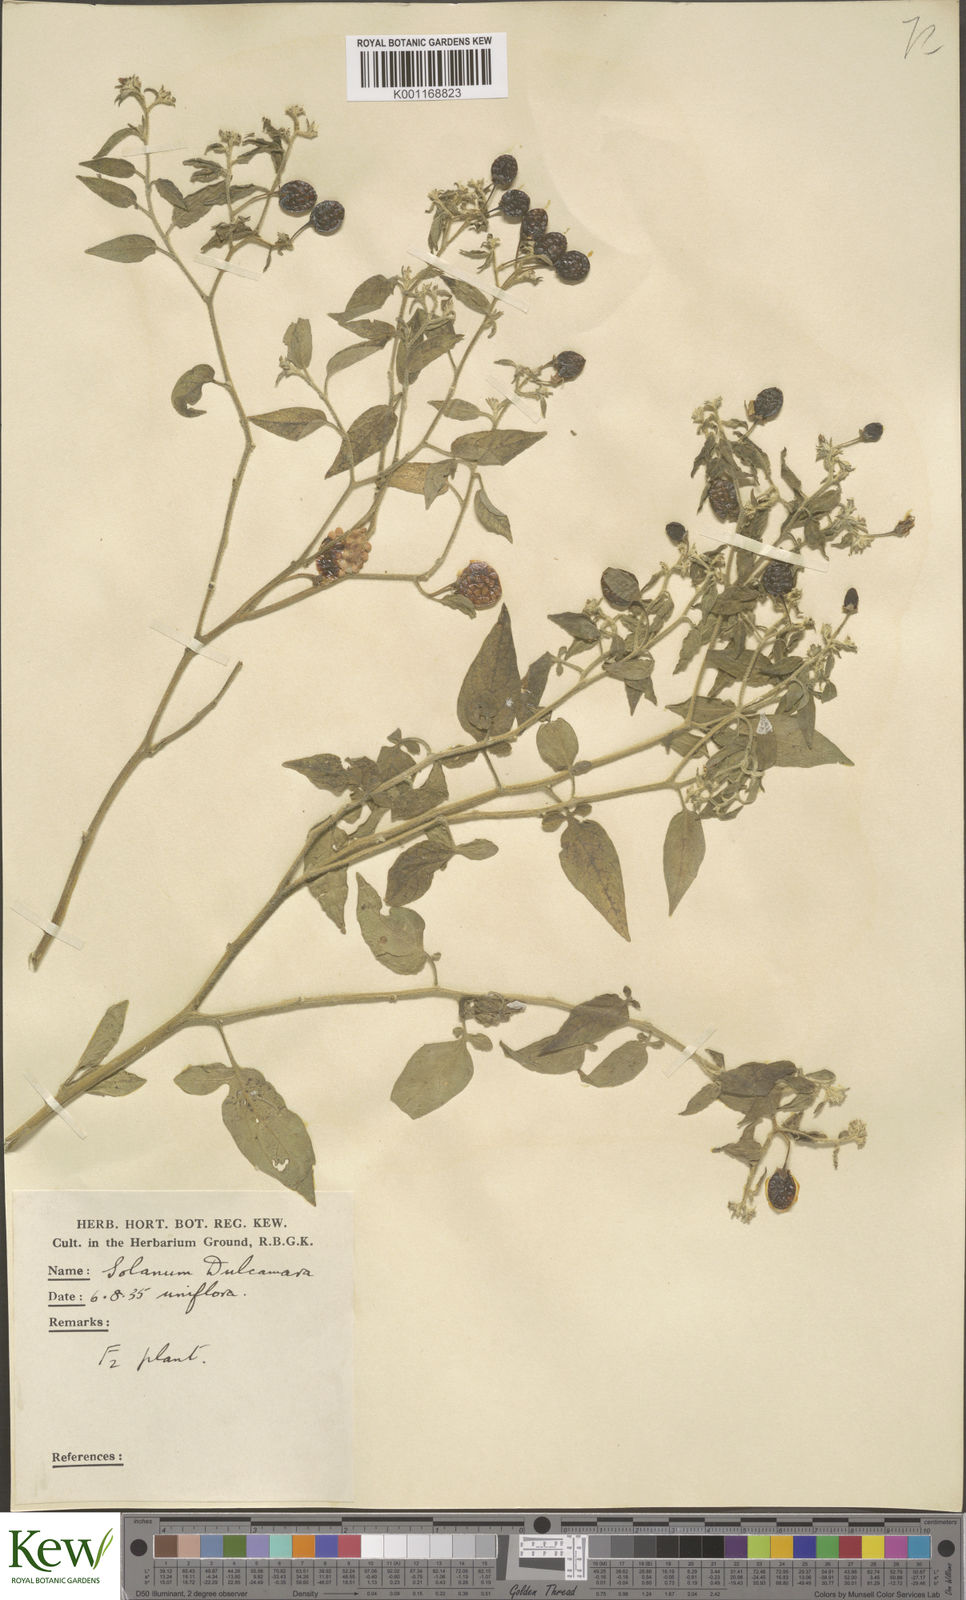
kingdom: Plantae
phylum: Tracheophyta
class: Magnoliopsida
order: Solanales
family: Solanaceae
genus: Solanum
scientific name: Solanum dulcamara
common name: Climbing nightshade
